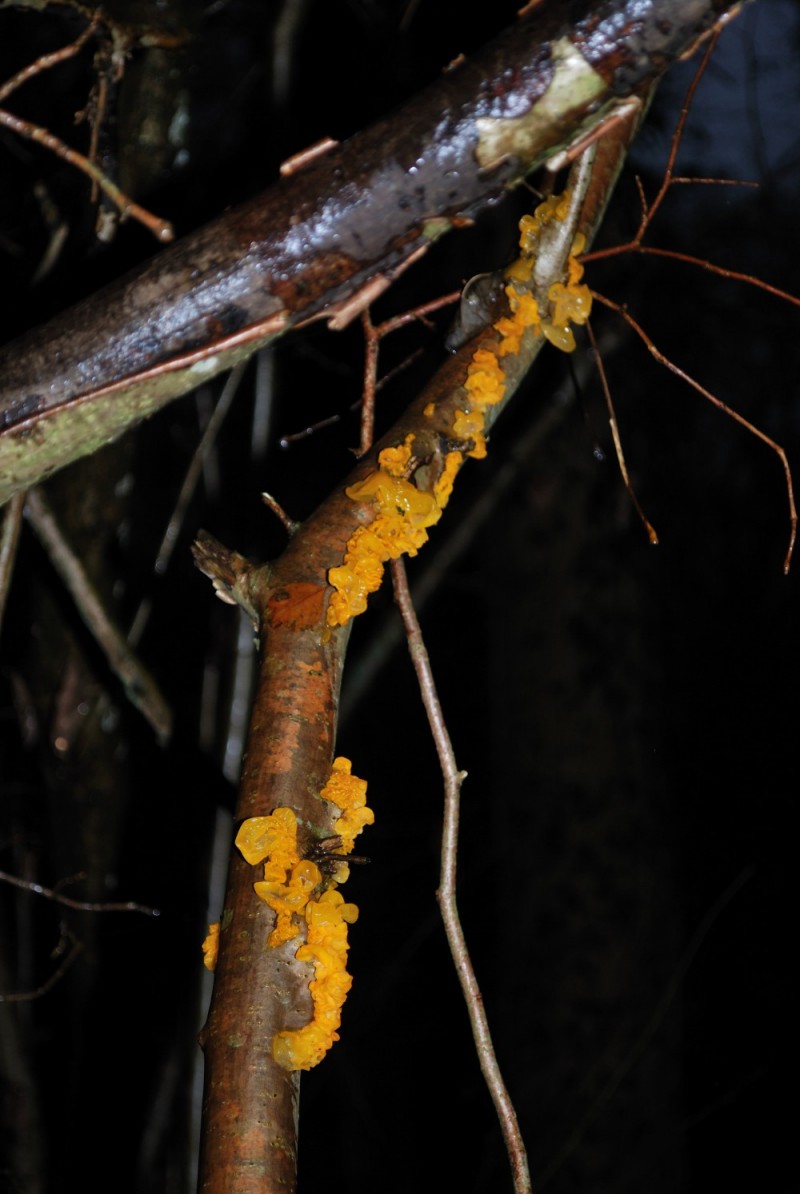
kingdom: Fungi
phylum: Basidiomycota
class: Tremellomycetes
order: Tremellales
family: Tremellaceae
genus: Tremella
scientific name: Tremella mesenterica
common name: gul bævresvamp
